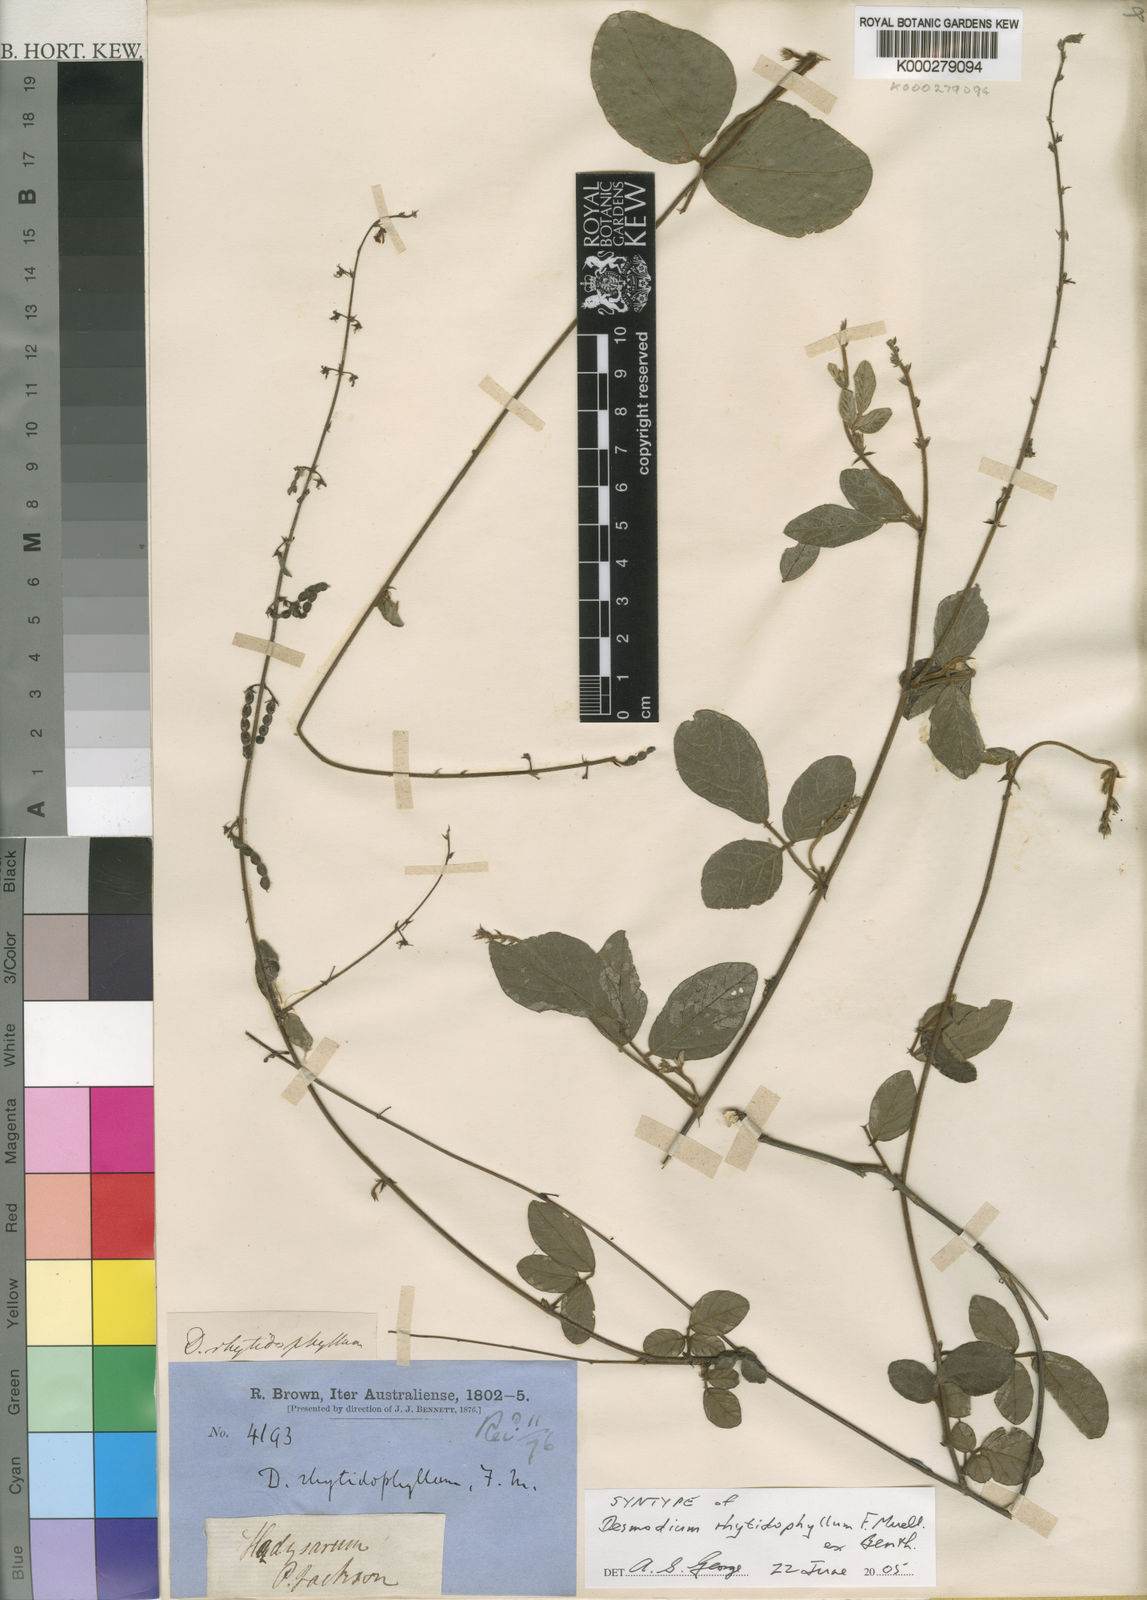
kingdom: Plantae
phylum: Tracheophyta
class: Magnoliopsida
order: Fabales
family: Fabaceae
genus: Maekawaea
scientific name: Maekawaea rhytidophylla
